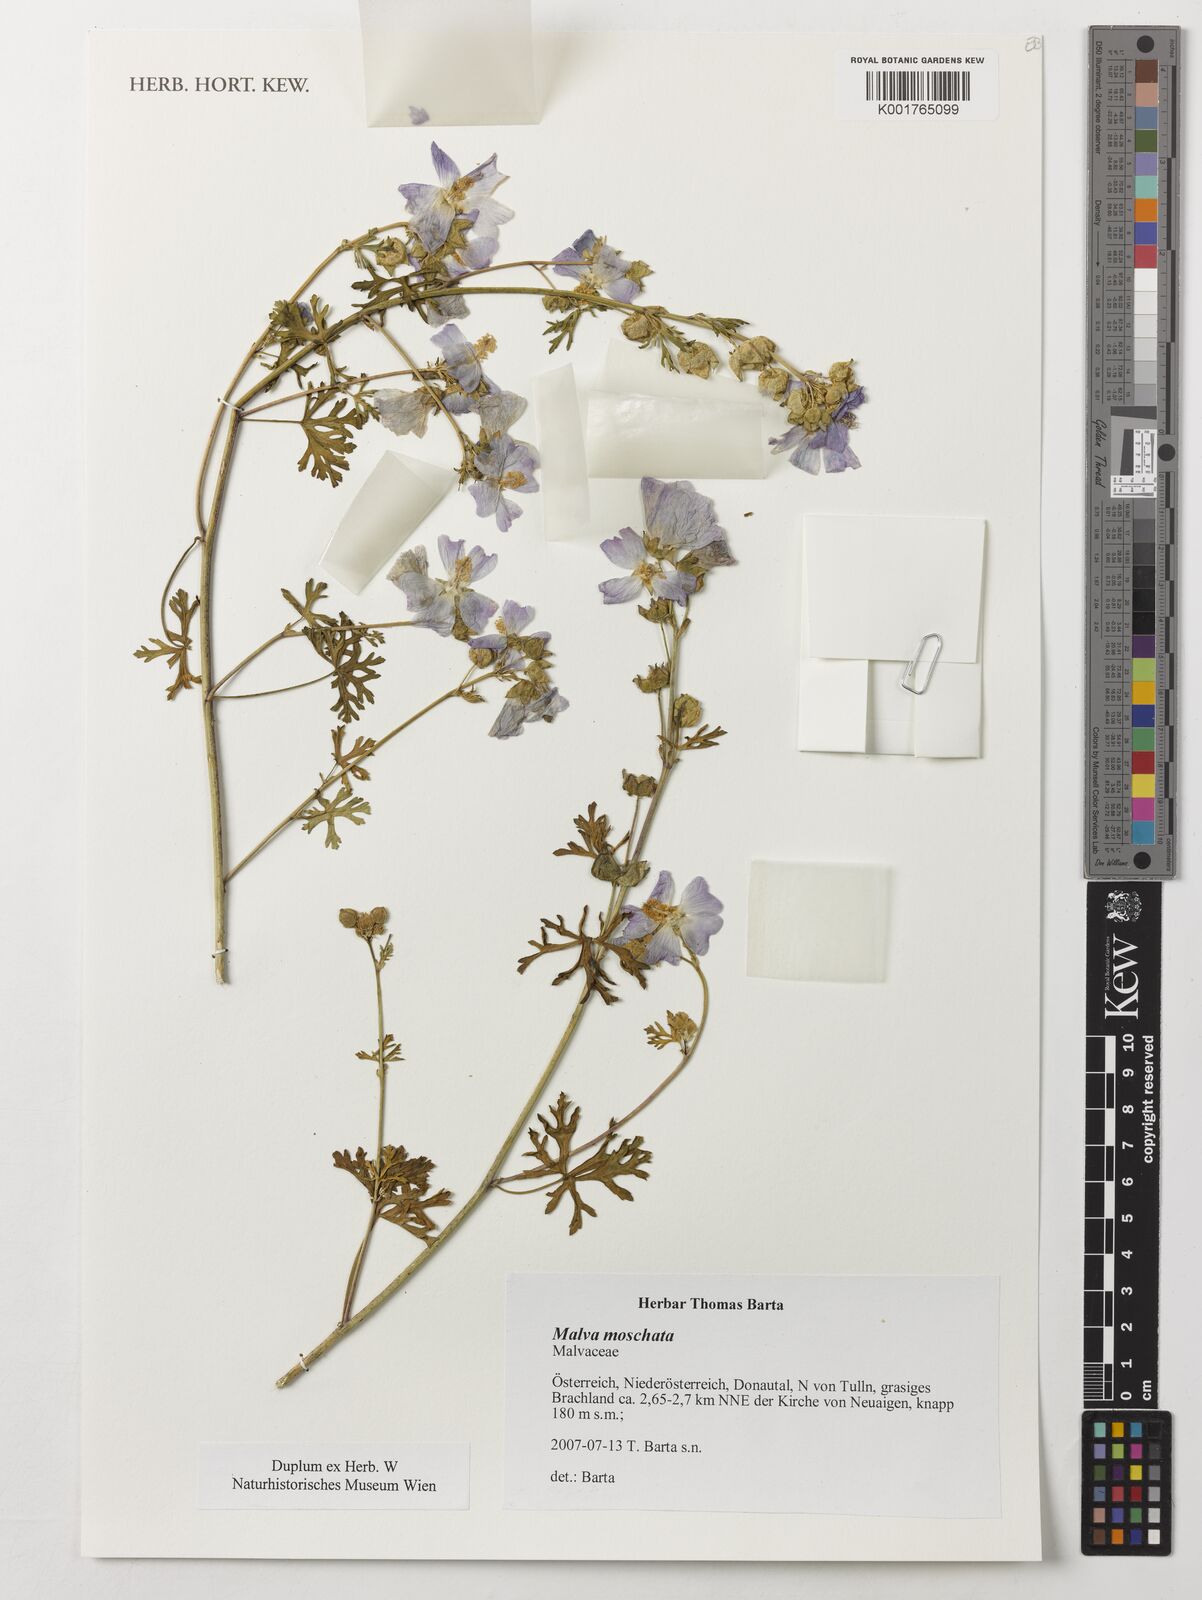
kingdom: Plantae
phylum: Tracheophyta
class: Magnoliopsida
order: Malvales
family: Malvaceae
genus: Malva
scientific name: Malva moschata
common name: Musk mallow
